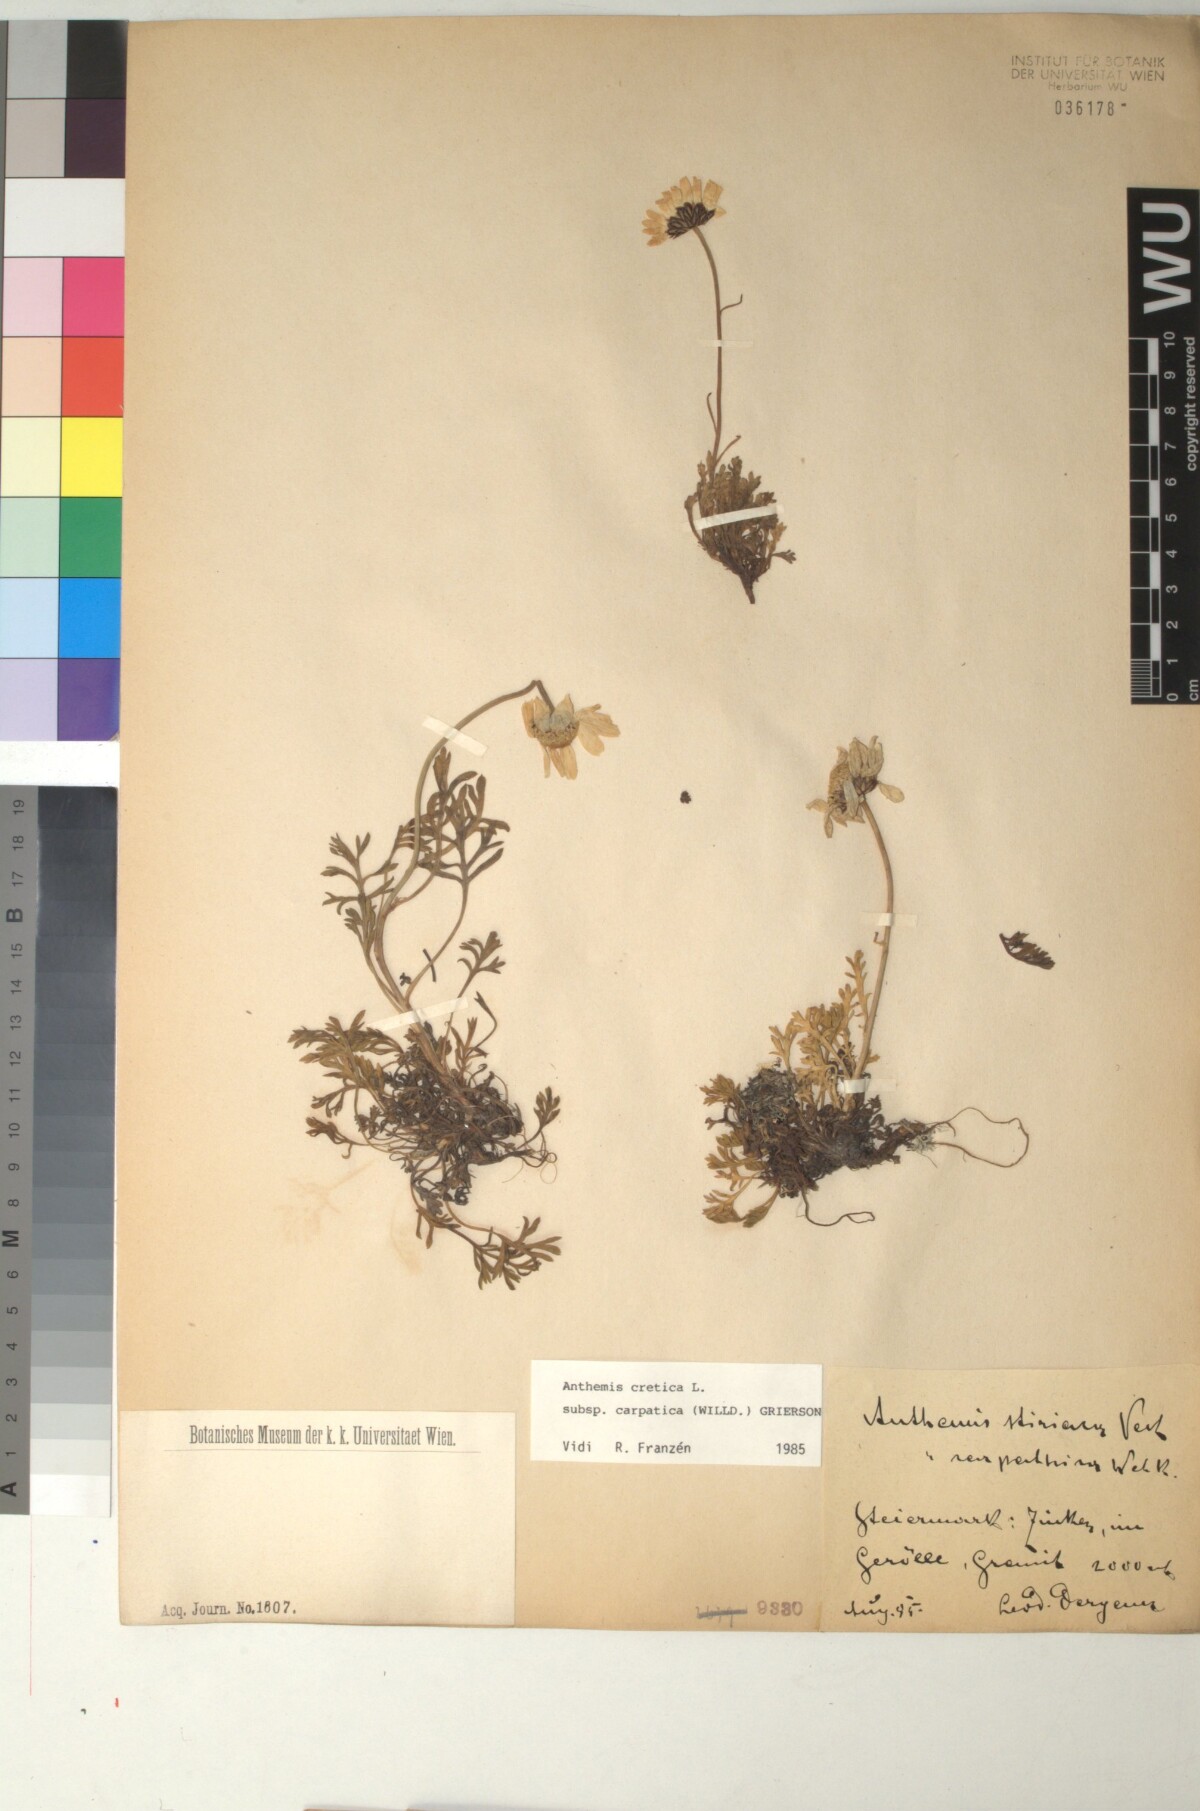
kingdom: Plantae
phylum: Tracheophyta
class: Magnoliopsida
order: Asterales
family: Asteraceae
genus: Anthemis
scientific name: Anthemis cretica
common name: Mountain dog-daisy
